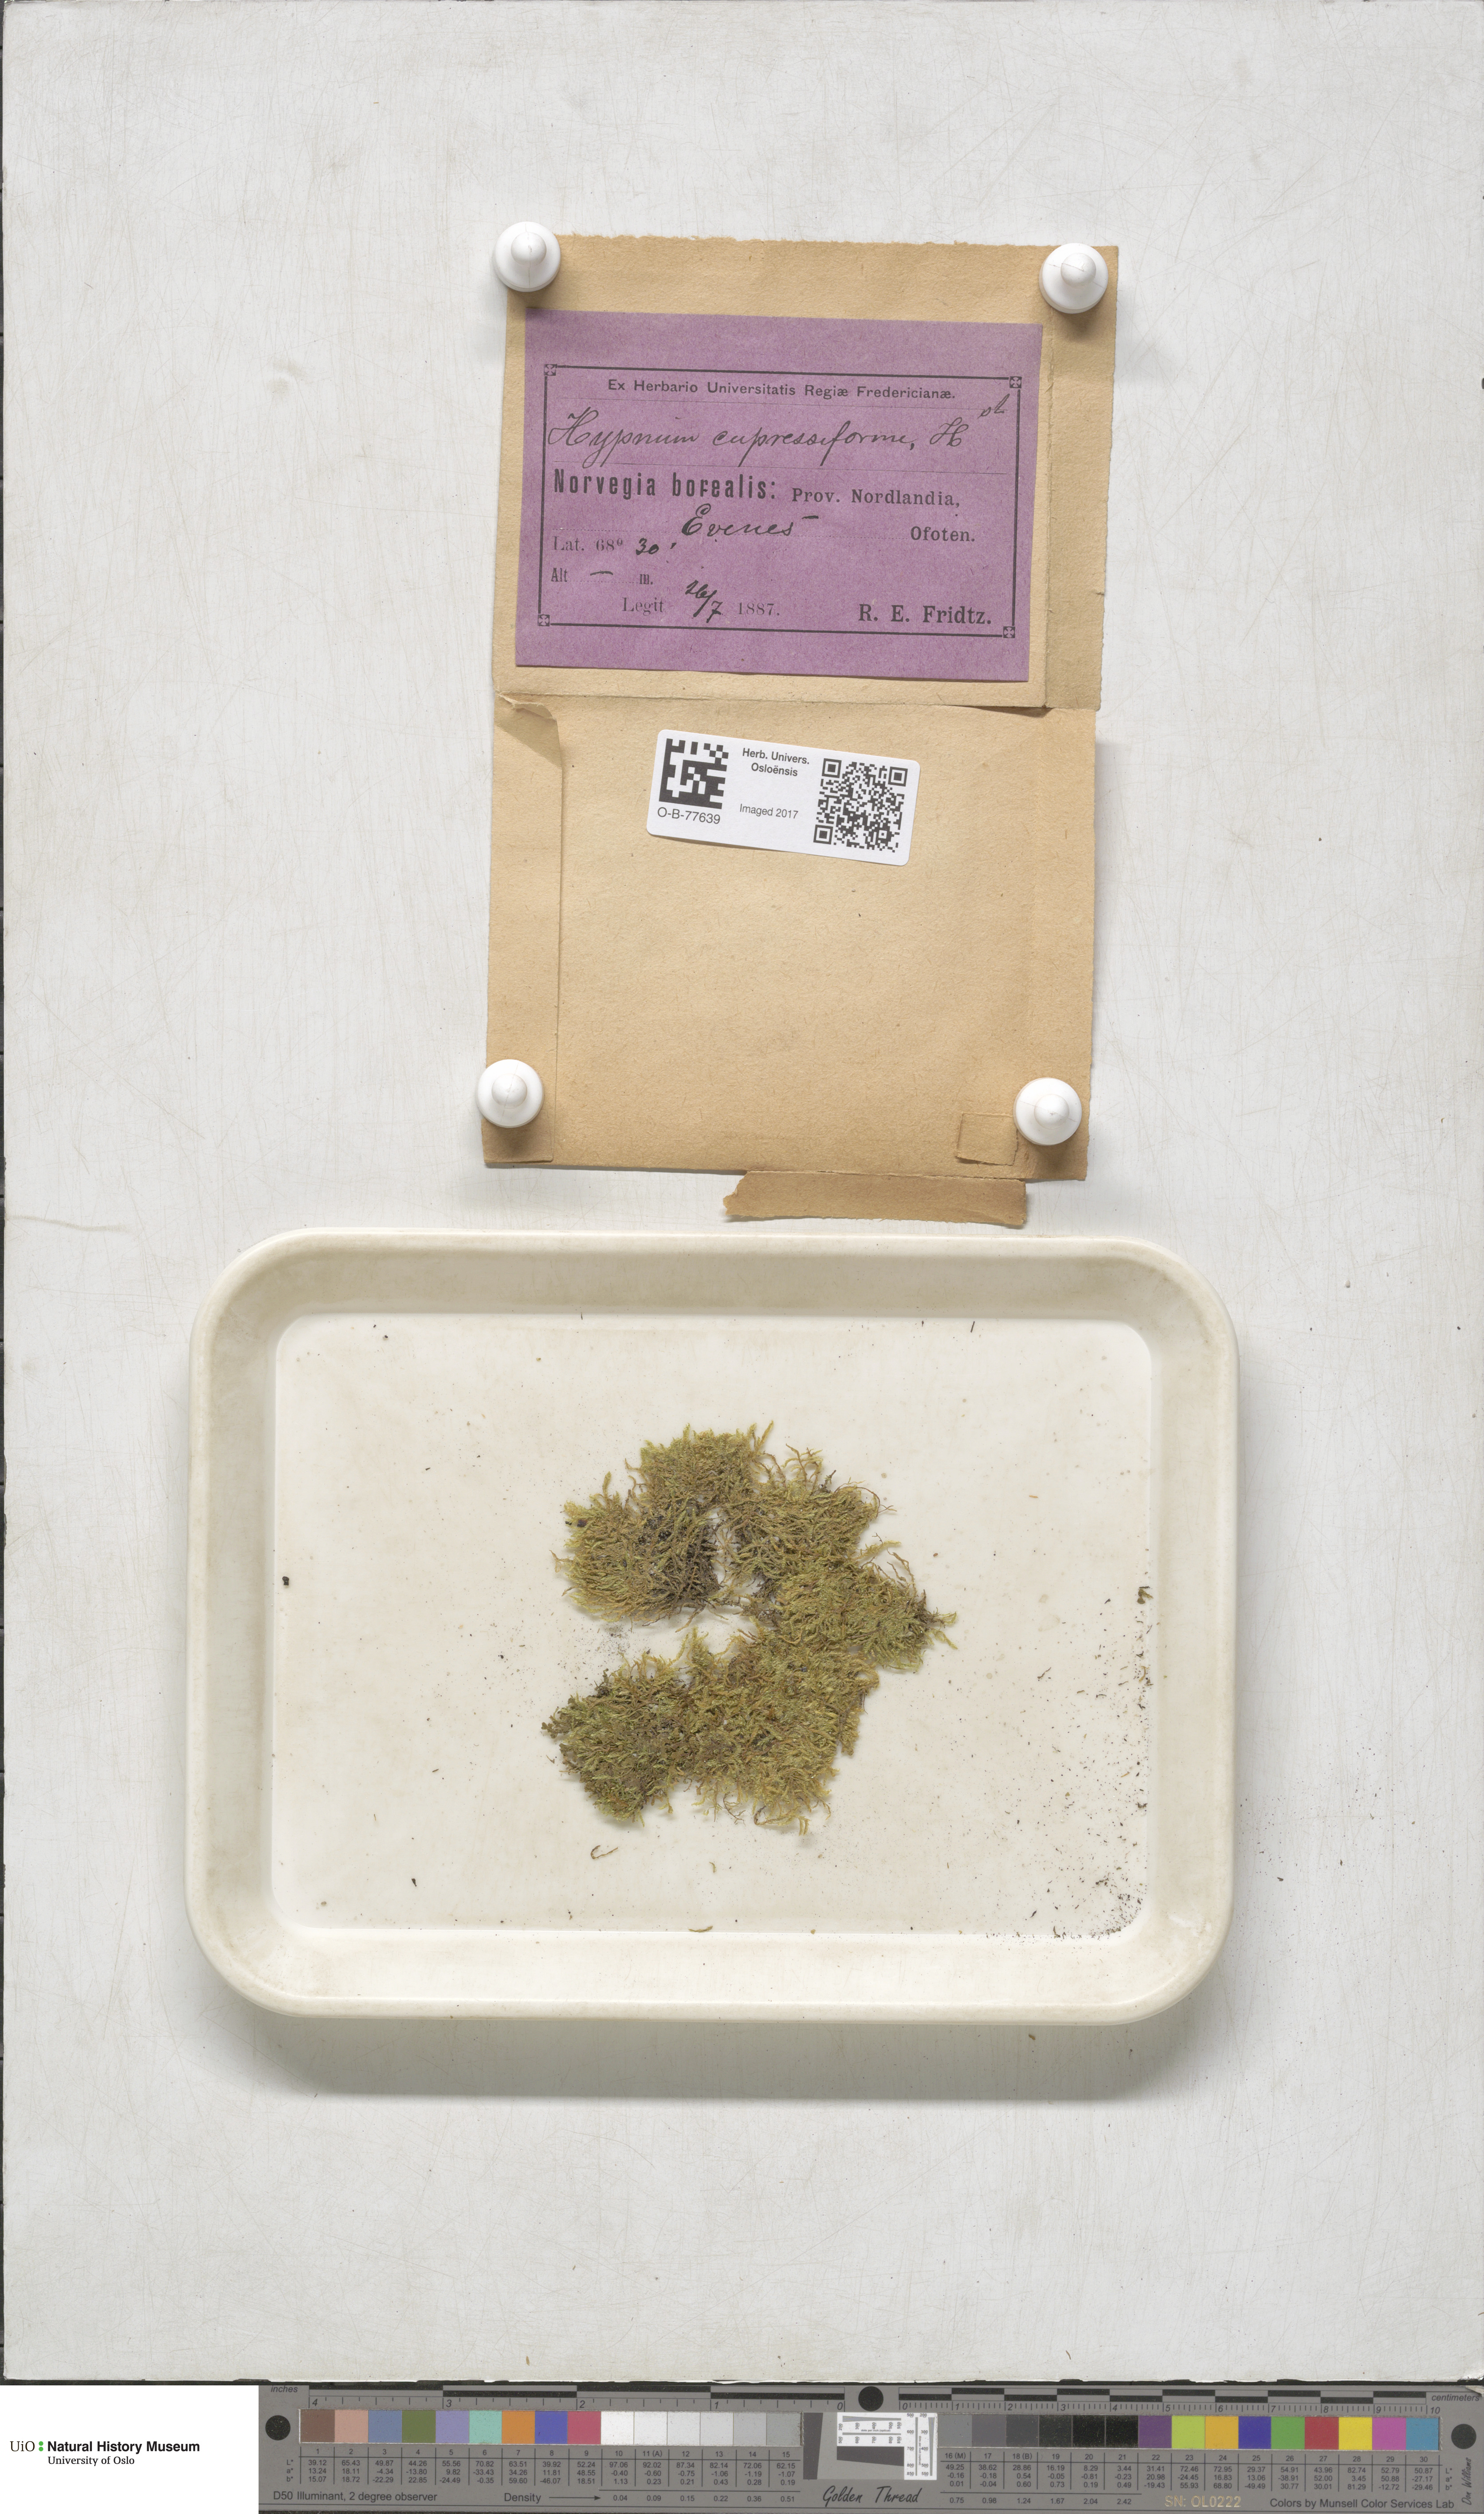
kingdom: Plantae
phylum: Bryophyta
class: Bryopsida
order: Hypnales
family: Hypnaceae
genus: Hypnum
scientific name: Hypnum cupressiforme
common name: Cypress-leaved plait-moss
